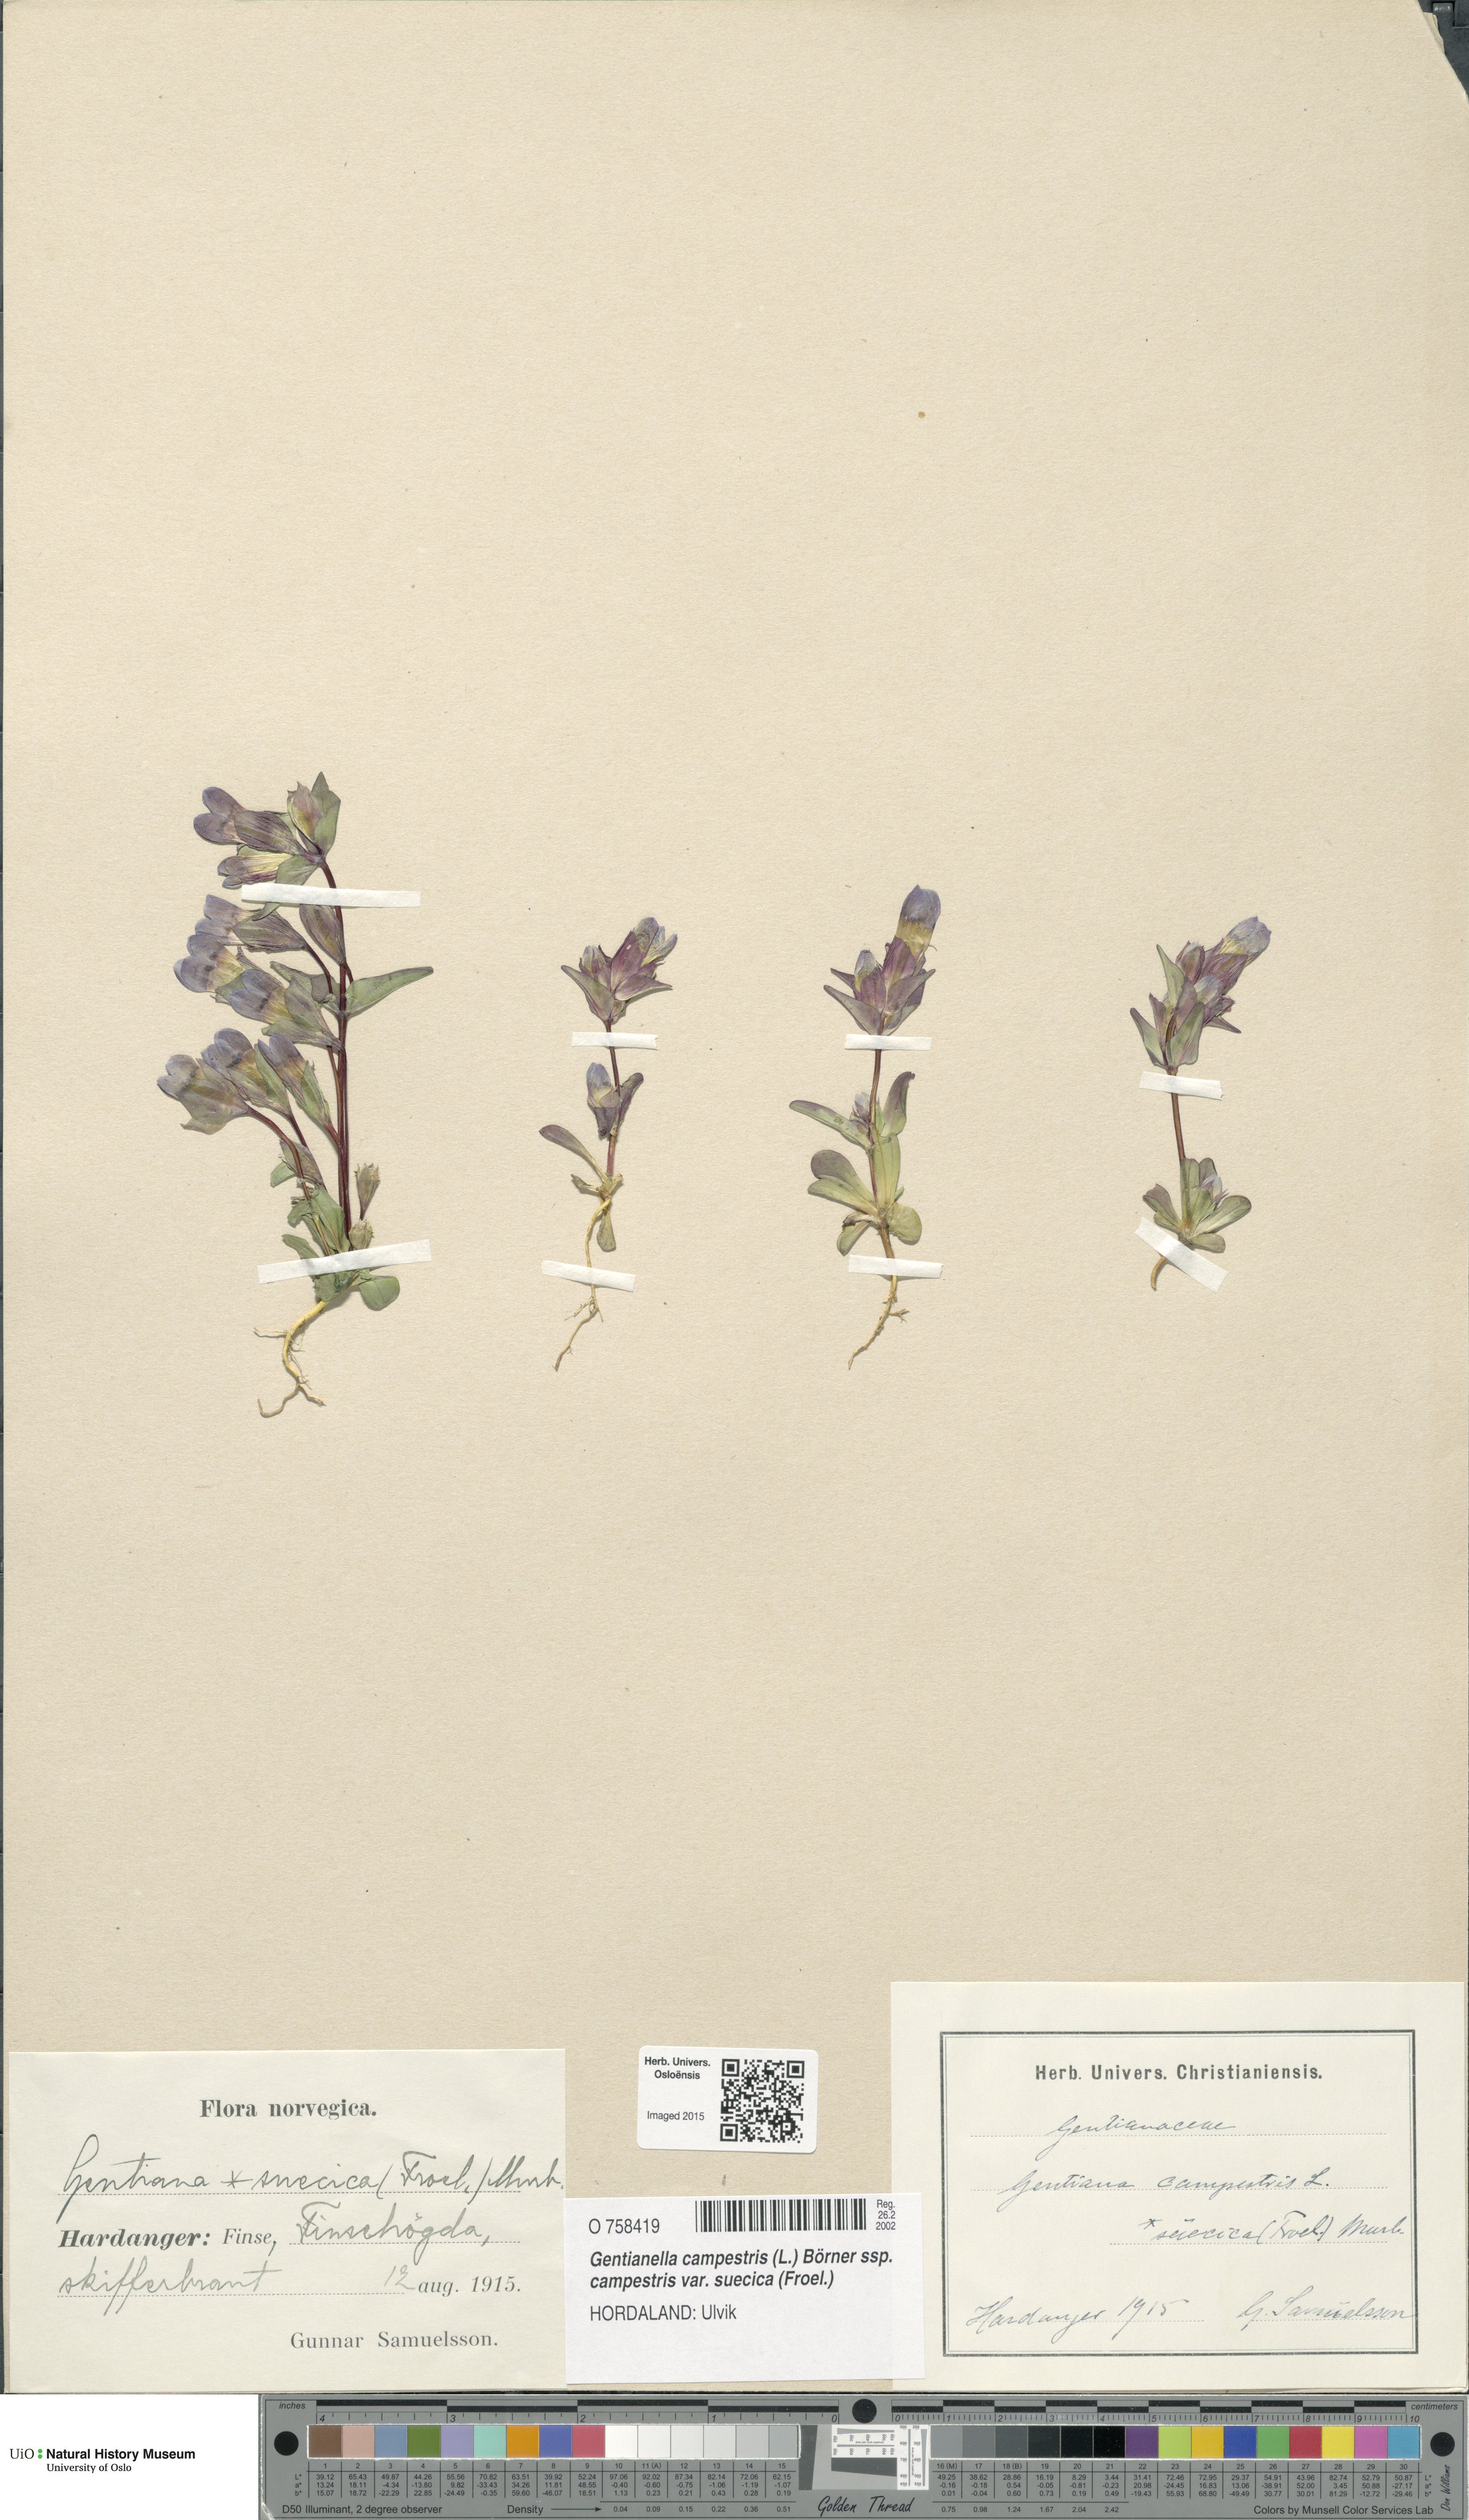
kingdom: Plantae
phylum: Tracheophyta
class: Magnoliopsida
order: Gentianales
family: Gentianaceae
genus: Gentianella
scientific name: Gentianella campestris
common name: Field gentian
